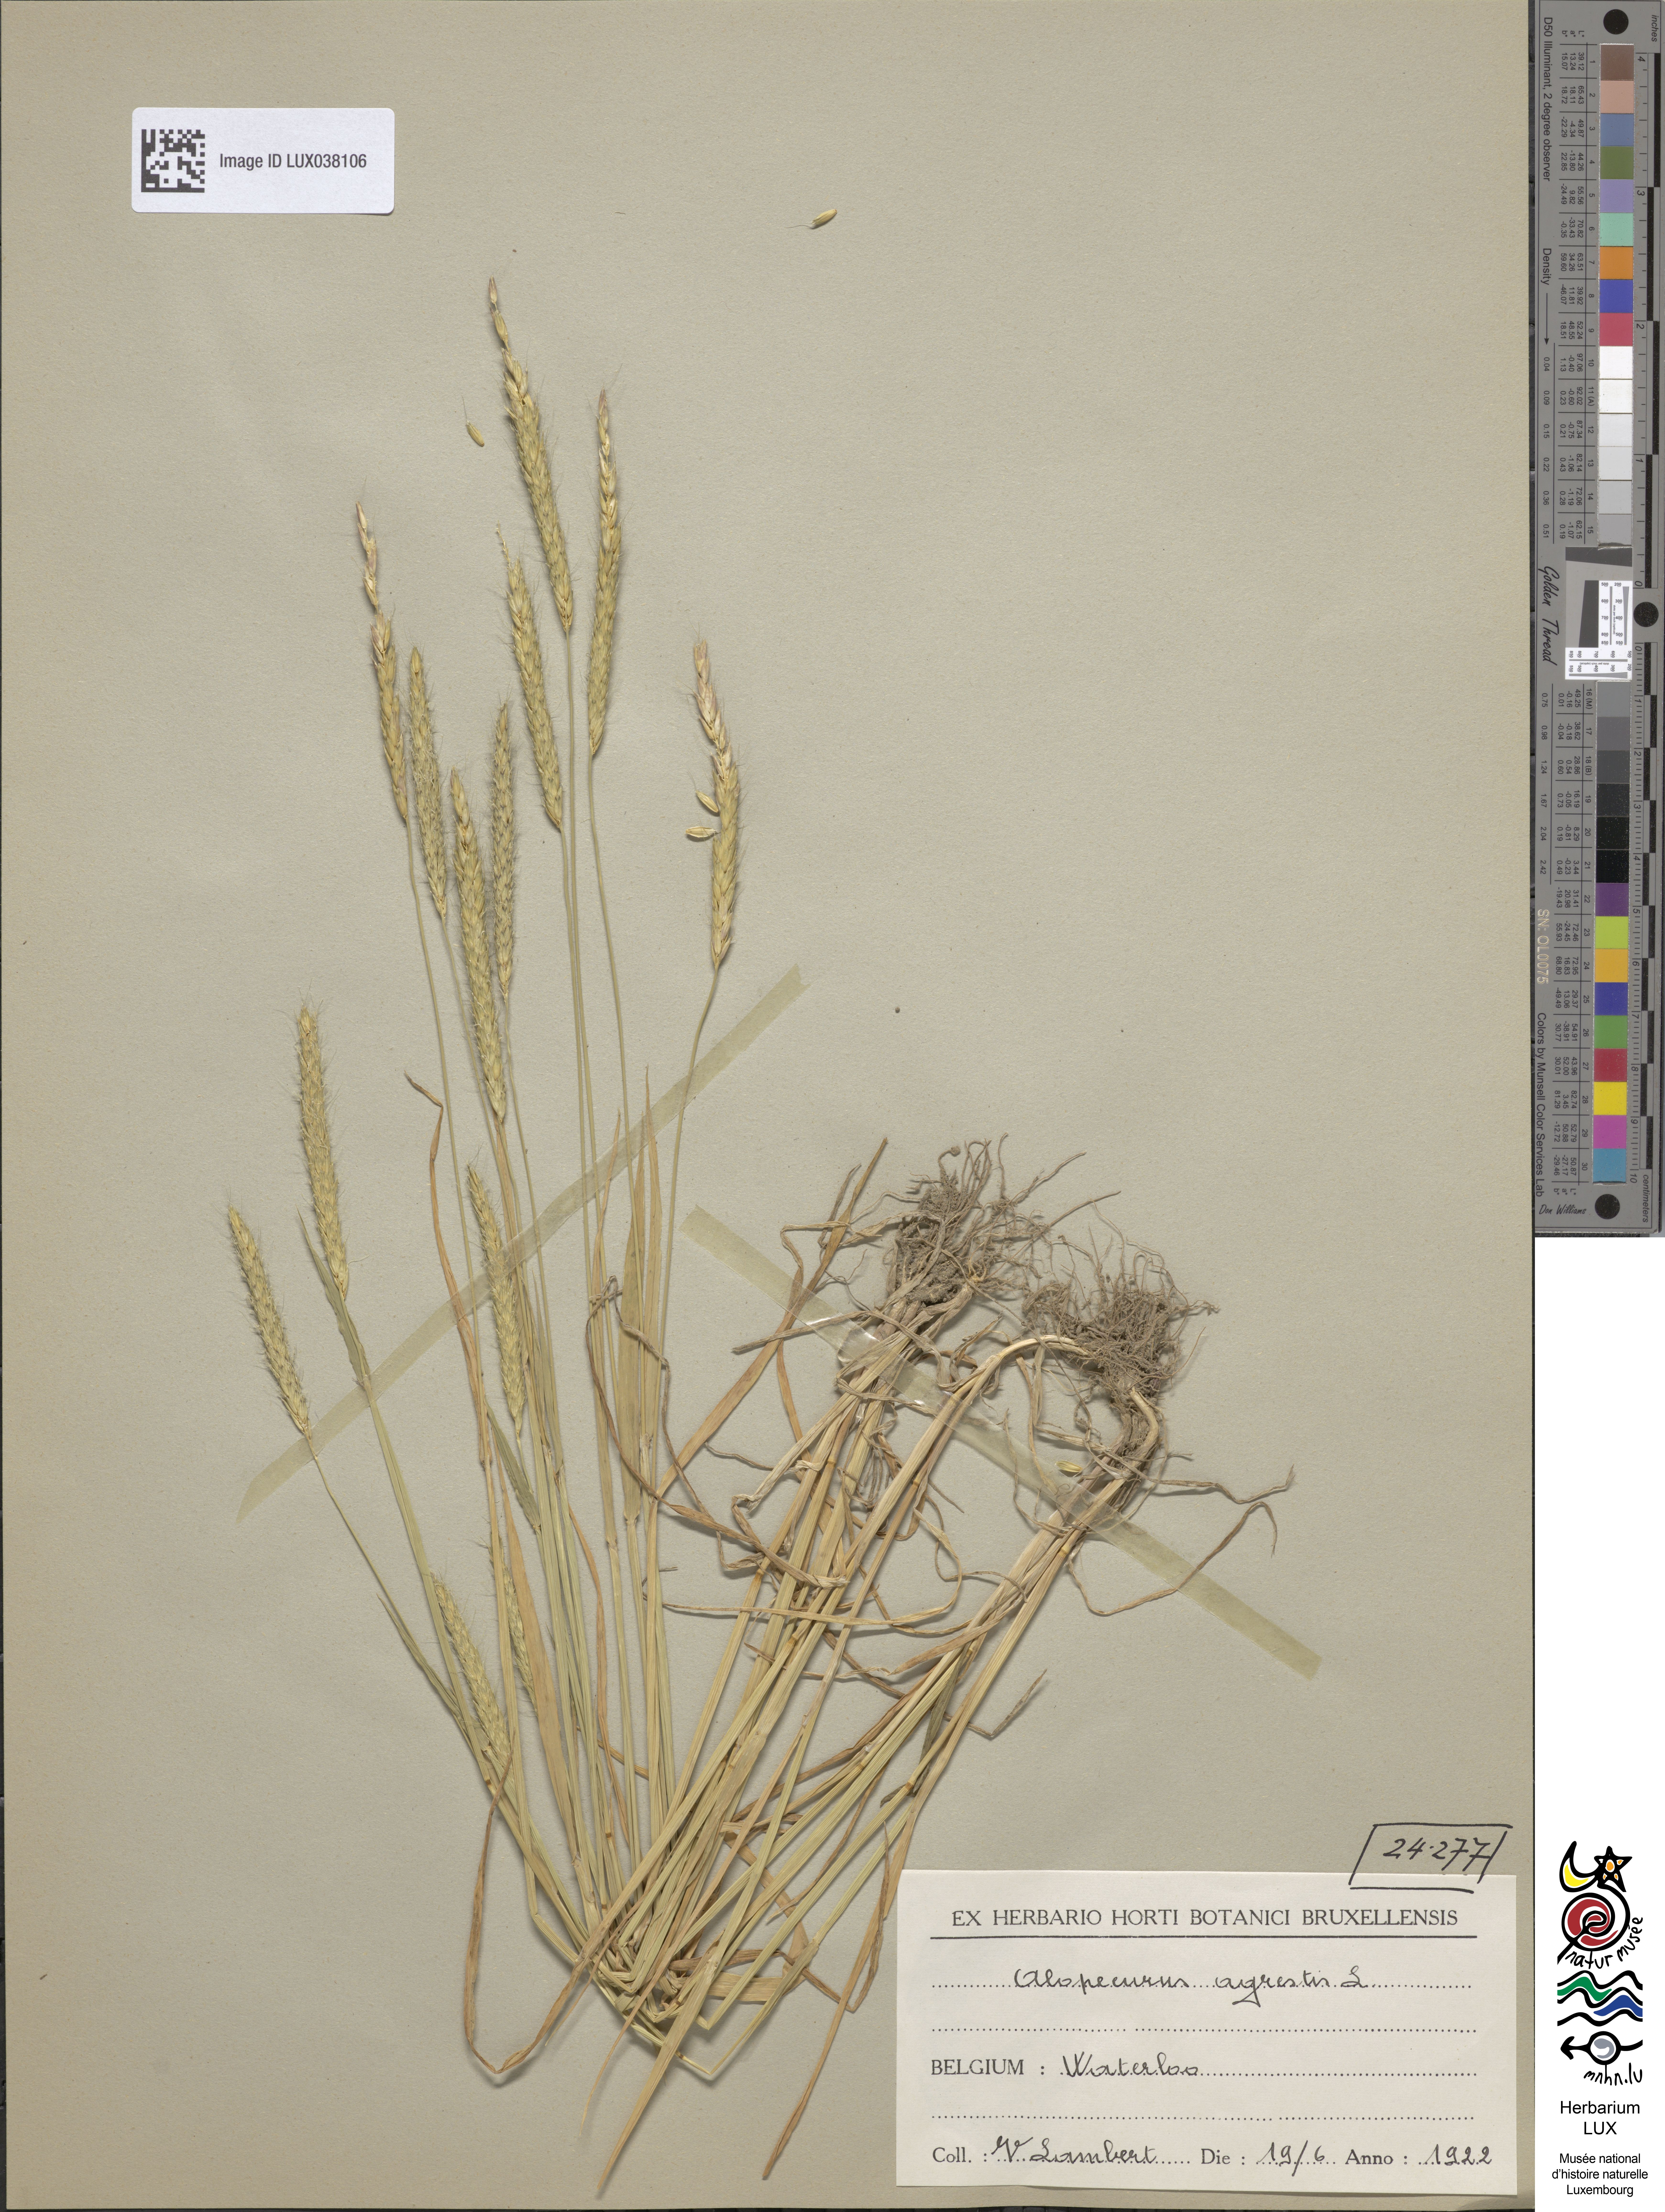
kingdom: Plantae
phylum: Tracheophyta
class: Liliopsida
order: Poales
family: Poaceae
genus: Alopecurus
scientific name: Alopecurus myosuroides
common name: Black-grass
